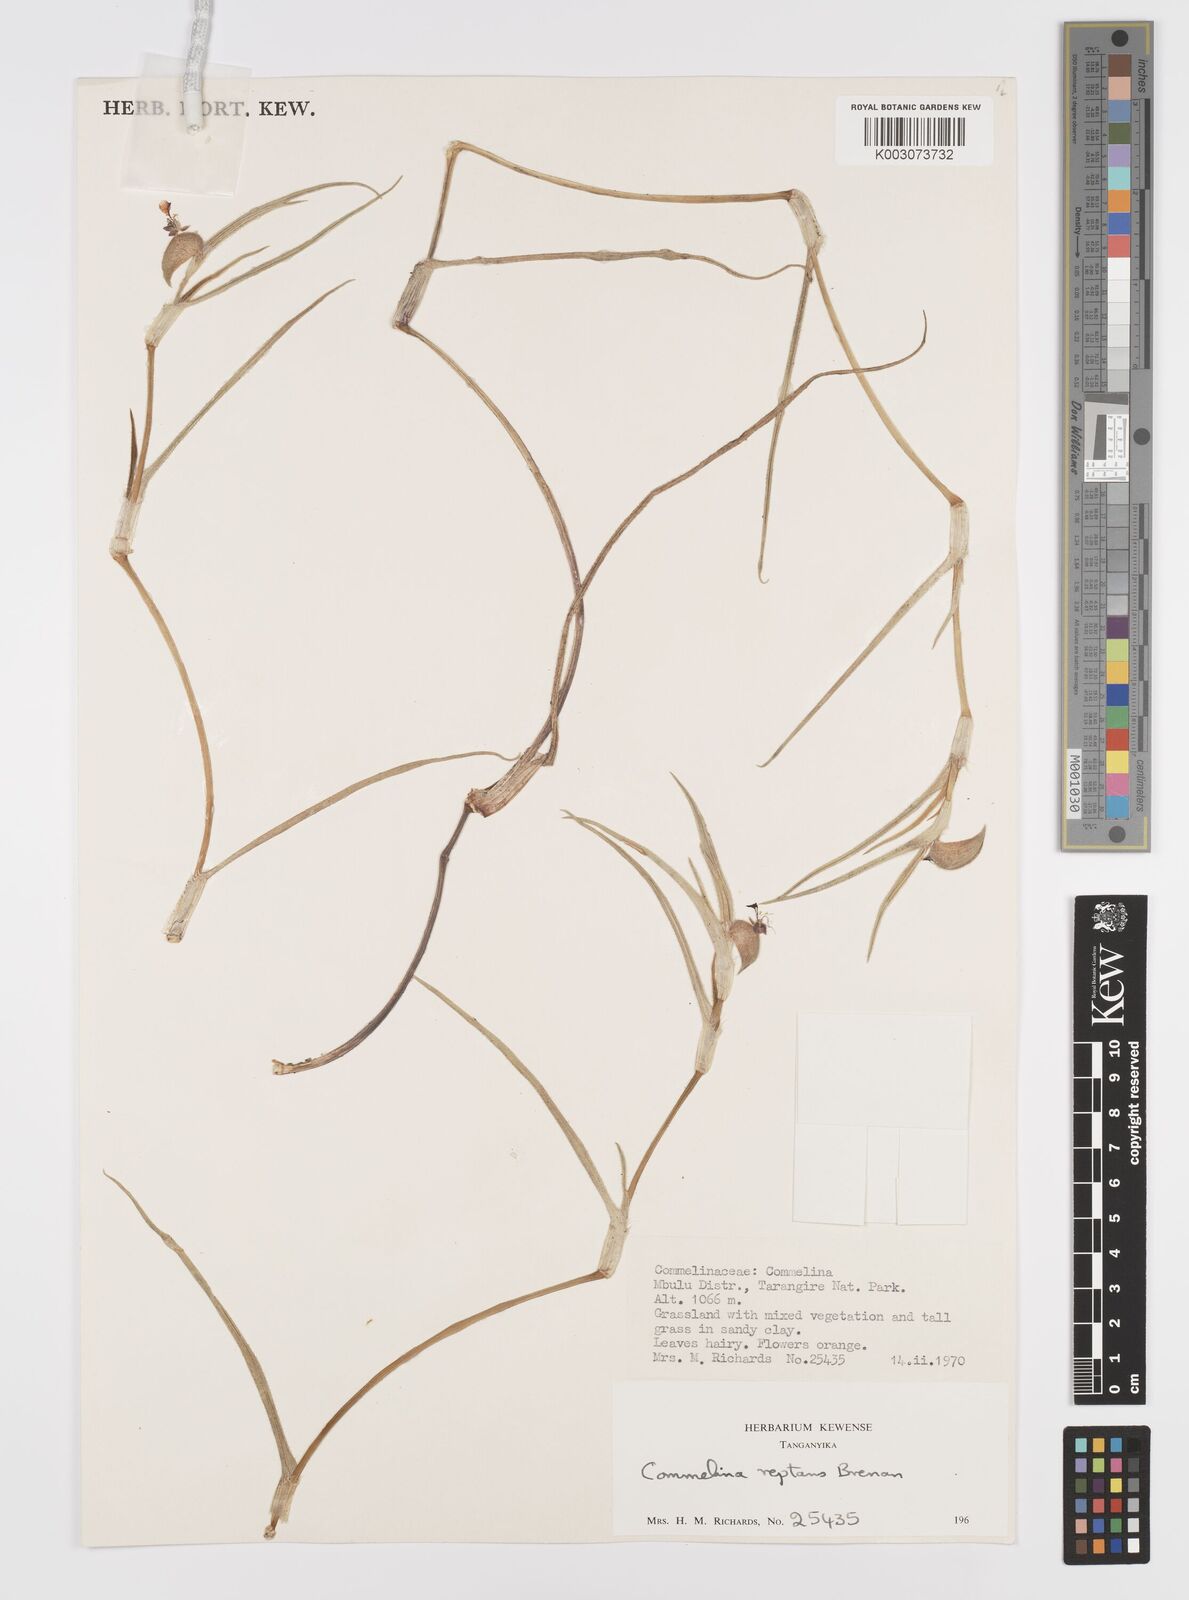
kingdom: Plantae
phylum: Tracheophyta
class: Liliopsida
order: Commelinales
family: Commelinaceae
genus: Commelina
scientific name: Commelina reptans
